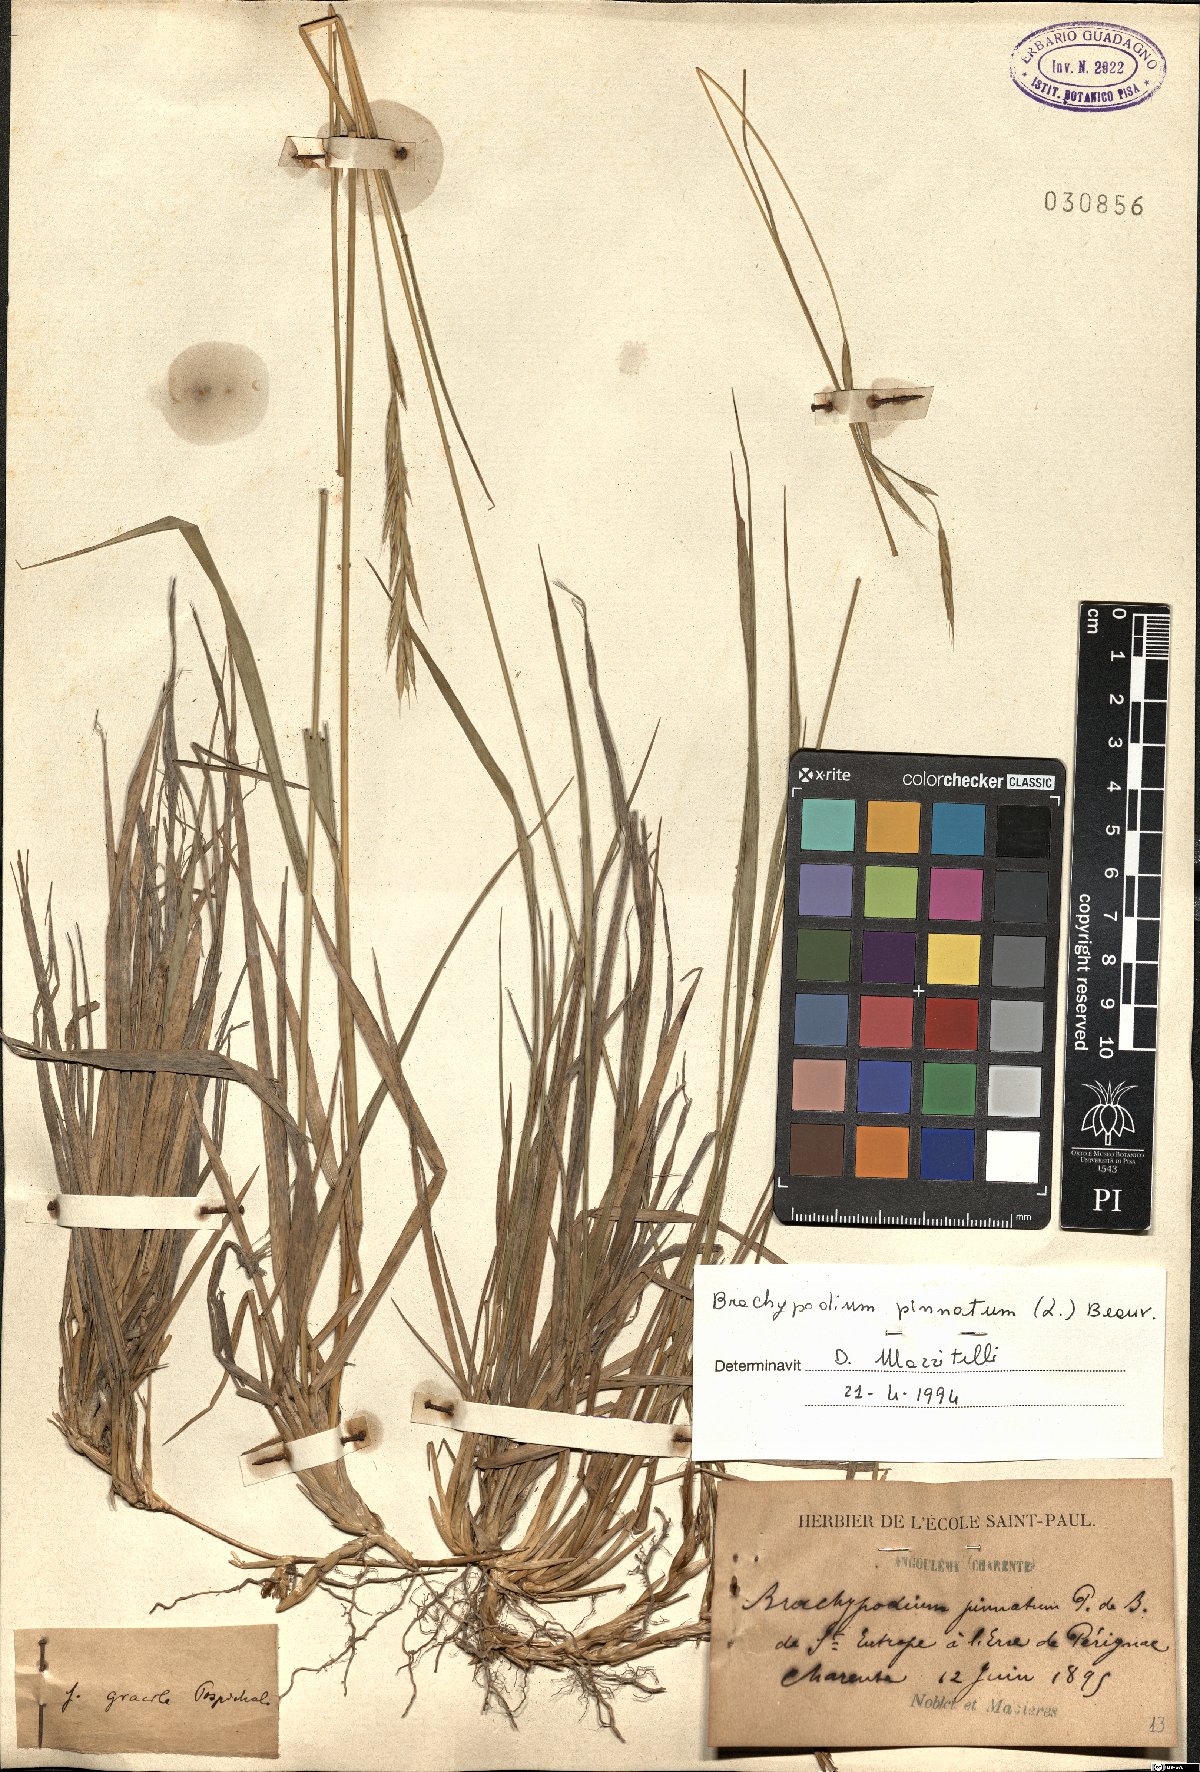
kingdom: Plantae
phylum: Tracheophyta
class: Liliopsida
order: Poales
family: Poaceae
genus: Brachypodium
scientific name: Brachypodium pinnatum
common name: Tor grass
